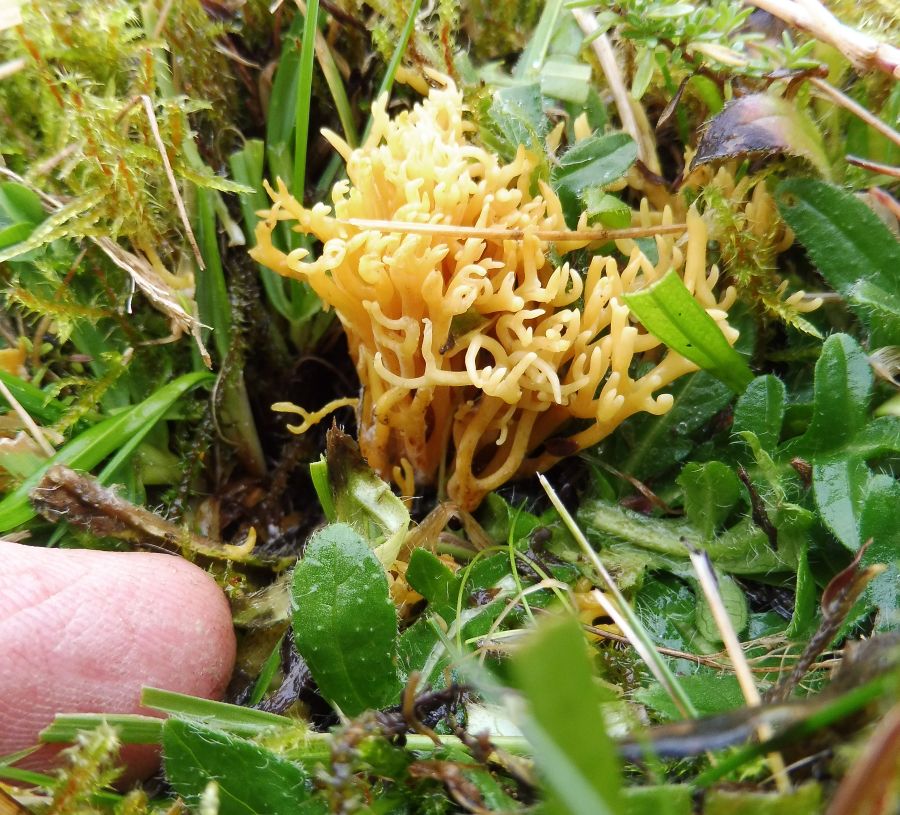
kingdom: Fungi
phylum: Basidiomycota
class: Agaricomycetes
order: Agaricales
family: Clavariaceae
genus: Clavulinopsis
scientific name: Clavulinopsis corniculata
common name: eng-køllesvamp
